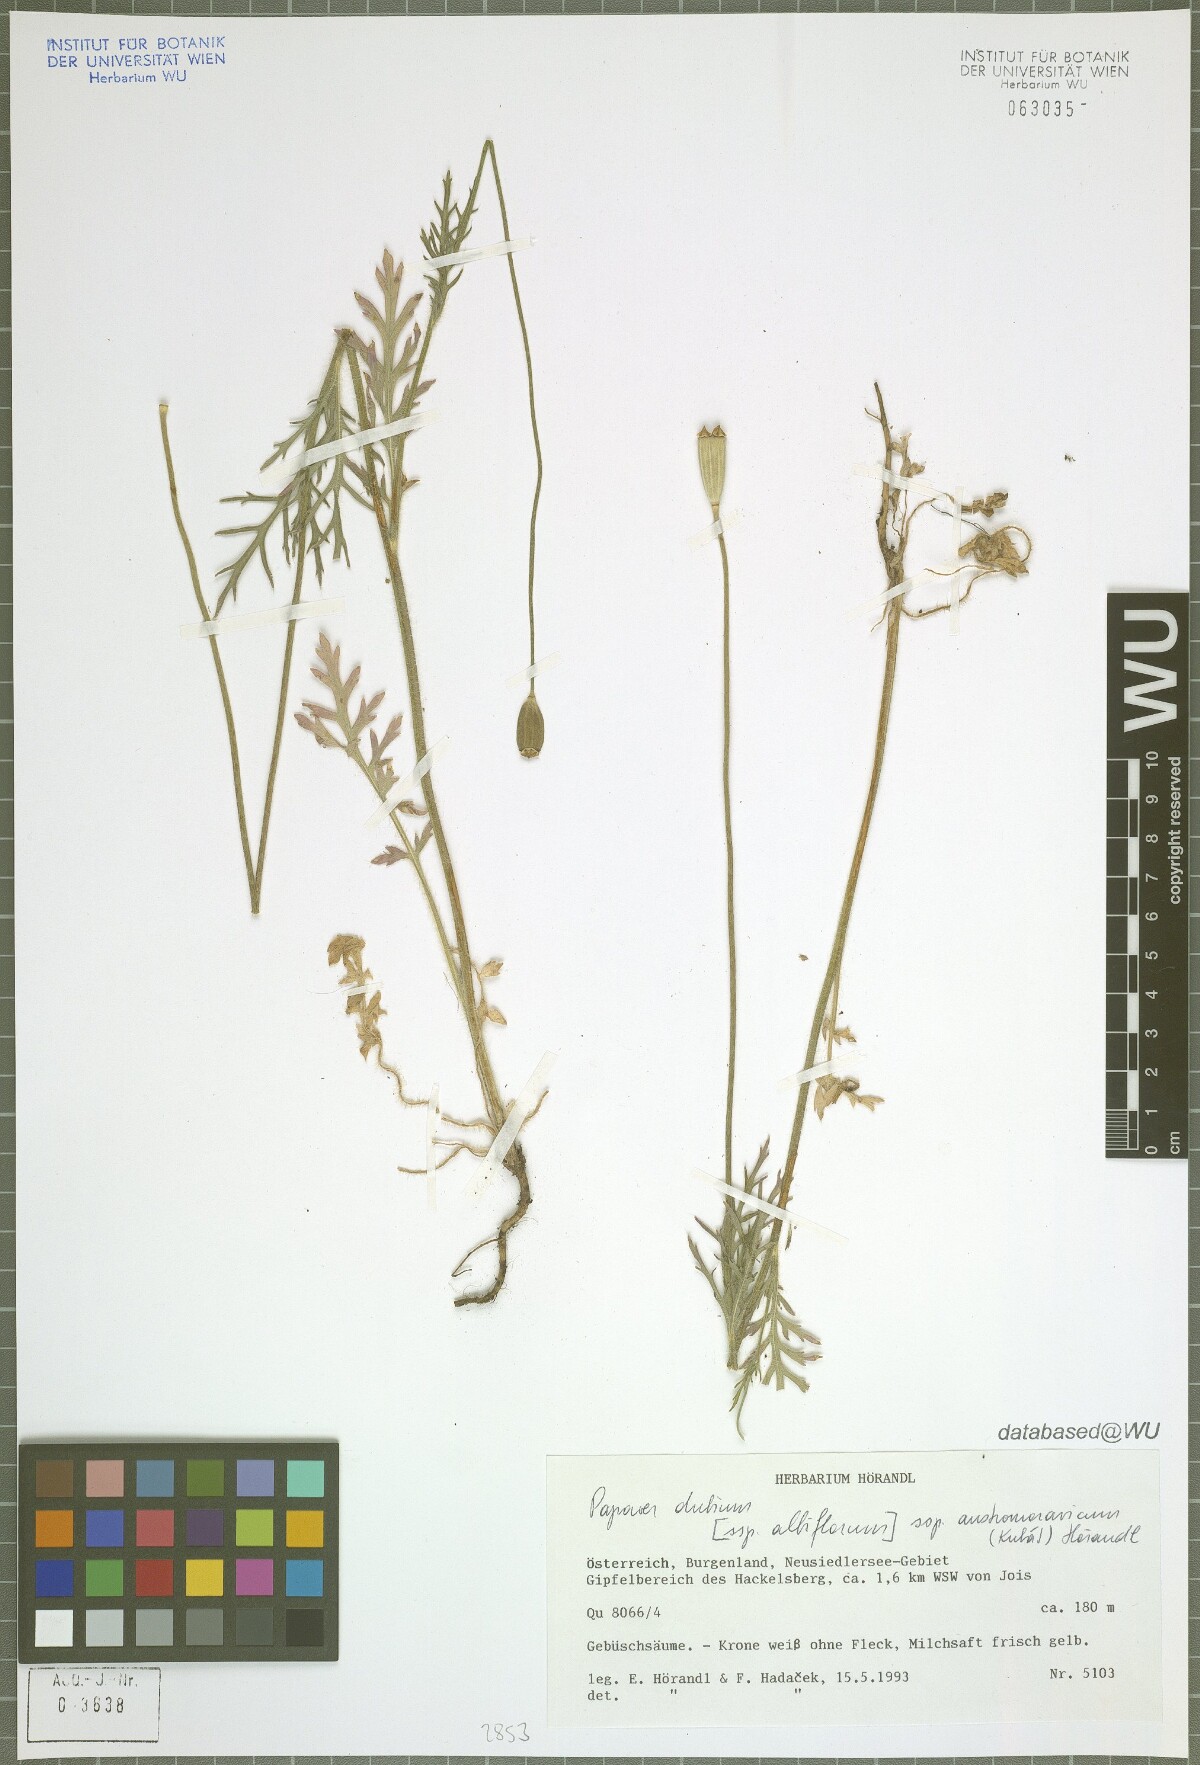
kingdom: Plantae
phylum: Tracheophyta
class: Magnoliopsida
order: Ranunculales
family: Papaveraceae
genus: Papaver
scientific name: Papaver dubium
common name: Long-headed poppy
